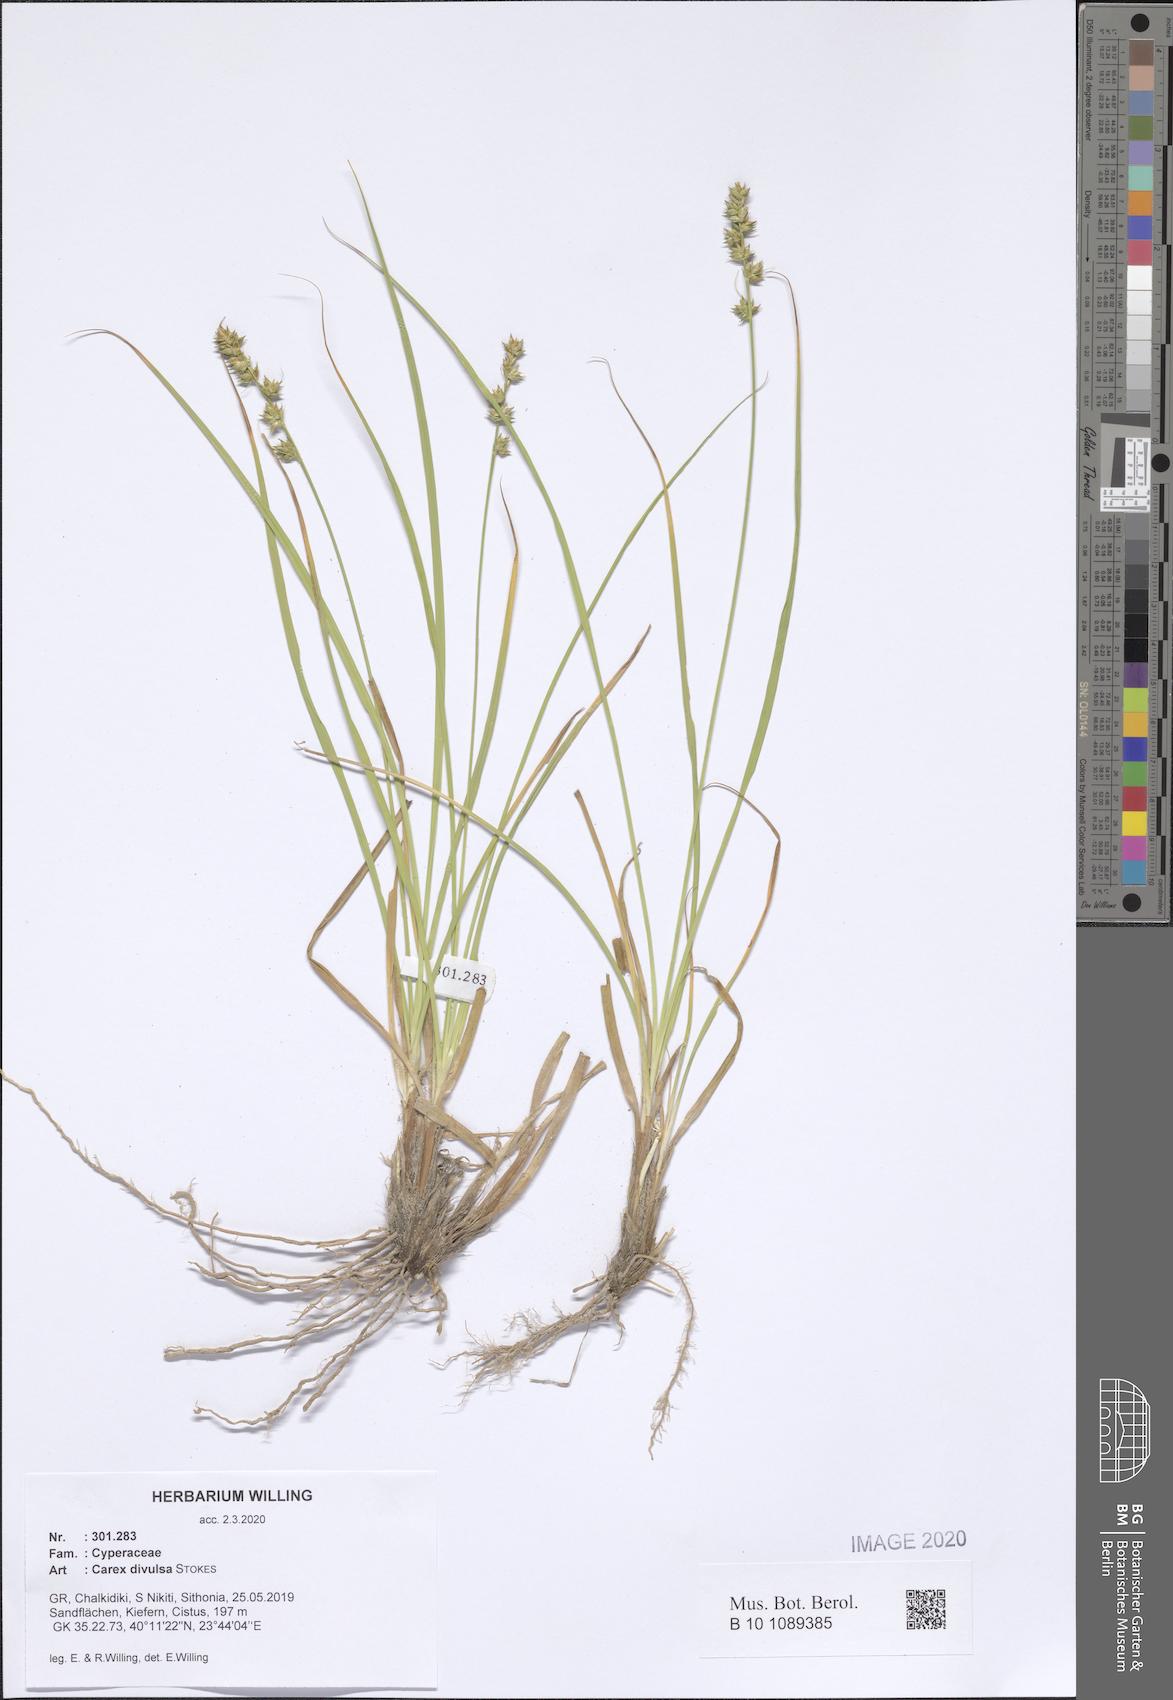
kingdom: Plantae
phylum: Tracheophyta
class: Liliopsida
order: Poales
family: Cyperaceae
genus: Carex
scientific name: Carex divulsa
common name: Grassland sedge
